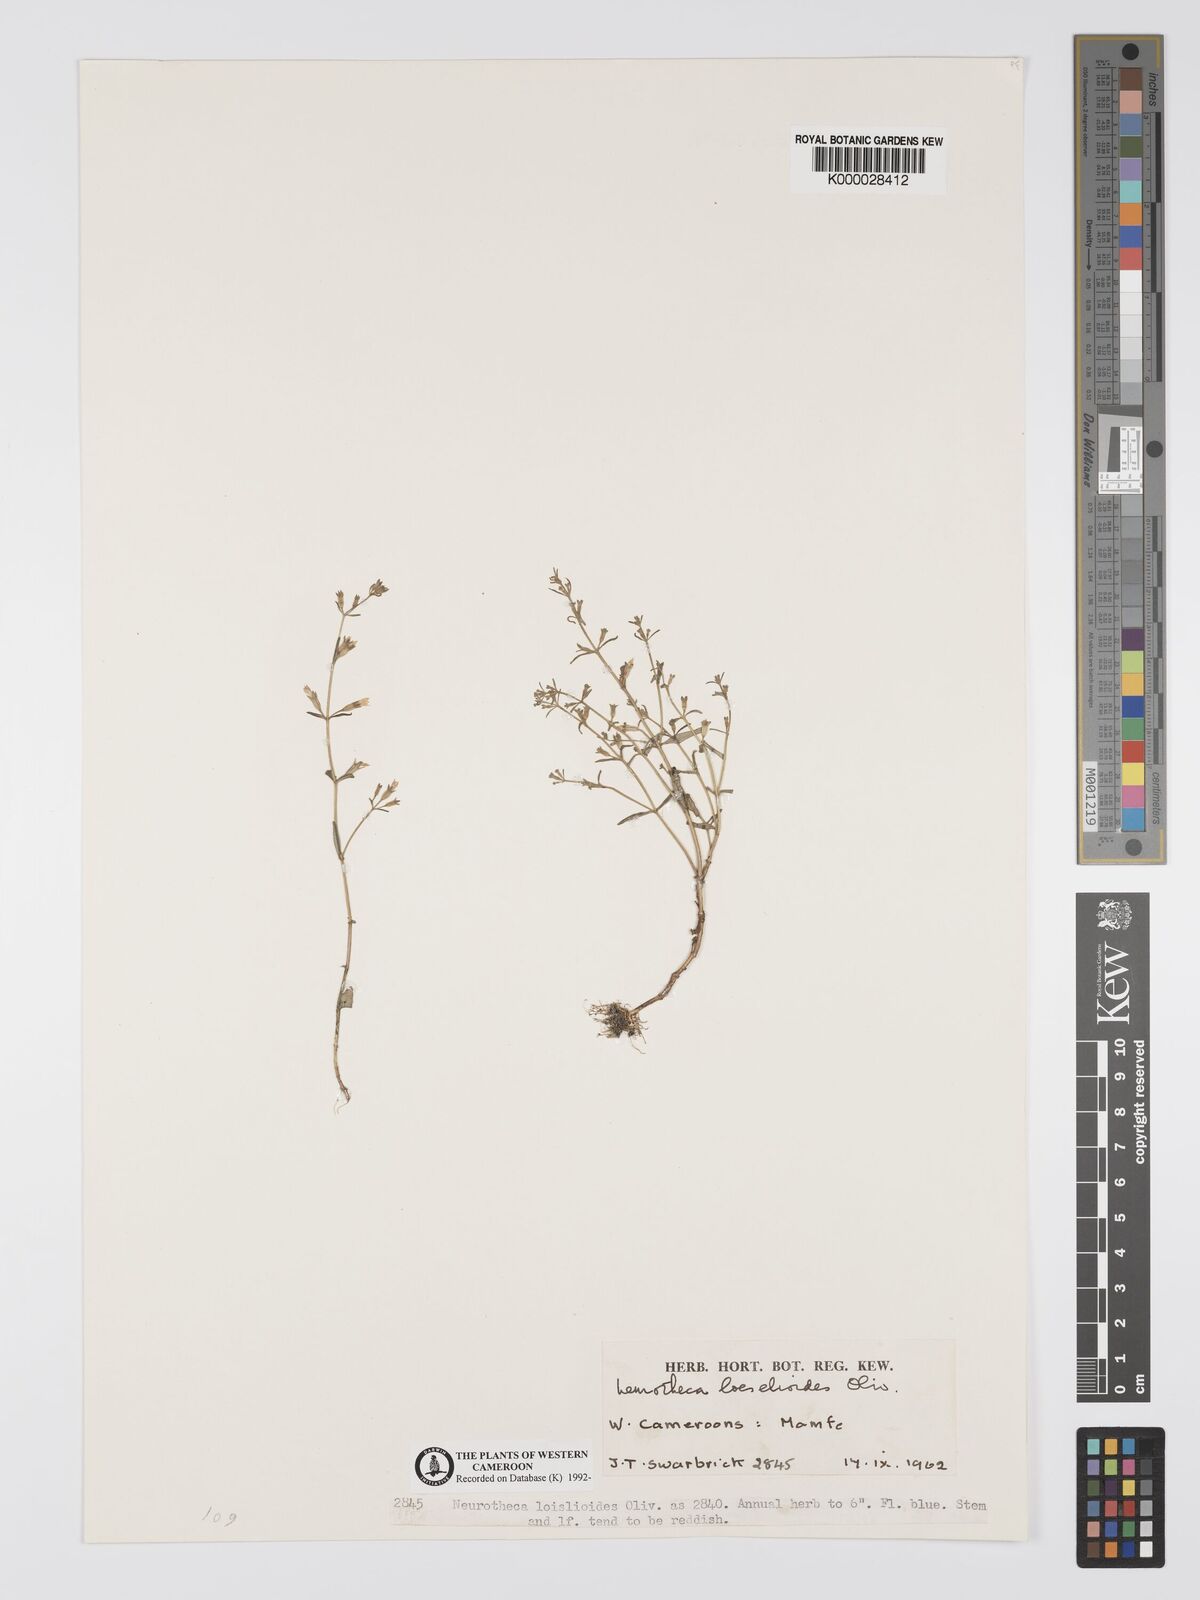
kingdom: Plantae
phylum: Tracheophyta
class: Magnoliopsida
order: Gentianales
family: Gentianaceae
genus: Neurotheca
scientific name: Neurotheca loeselioides
